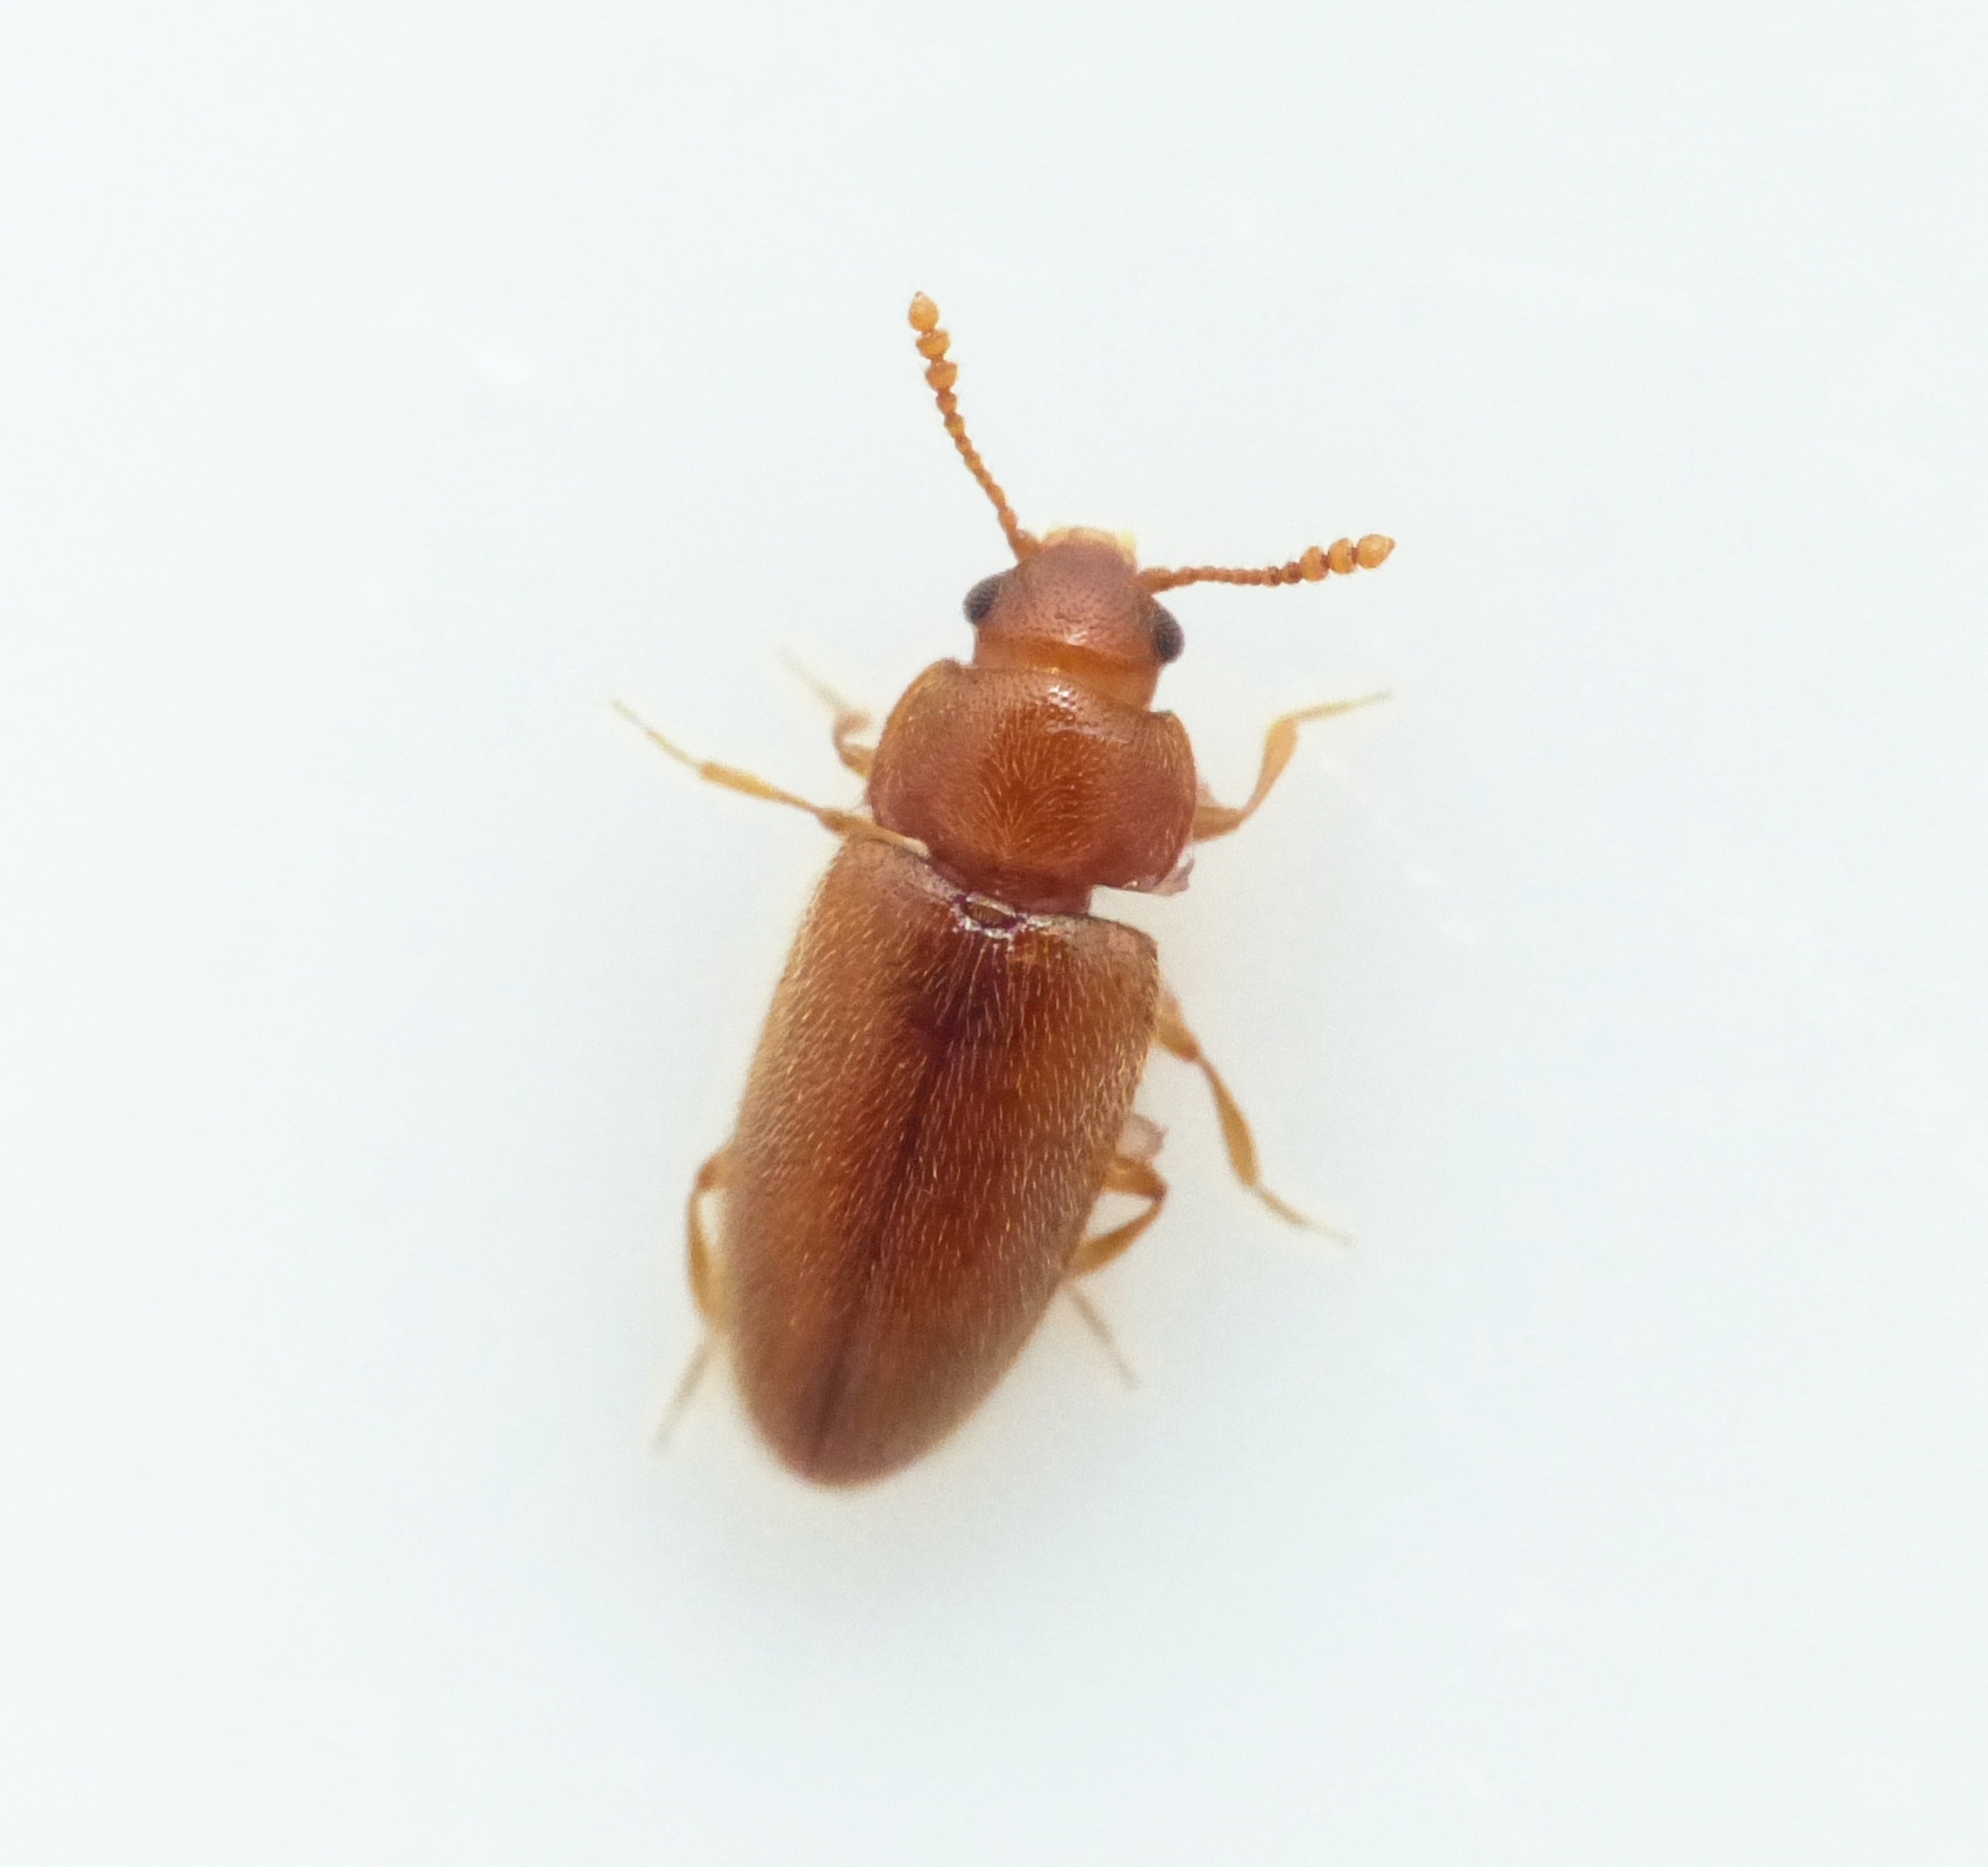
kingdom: Animalia
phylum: Arthropoda
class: Insecta
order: Coleoptera
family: Erotylidae
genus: Cryptophilus
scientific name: Cryptophilus integer
